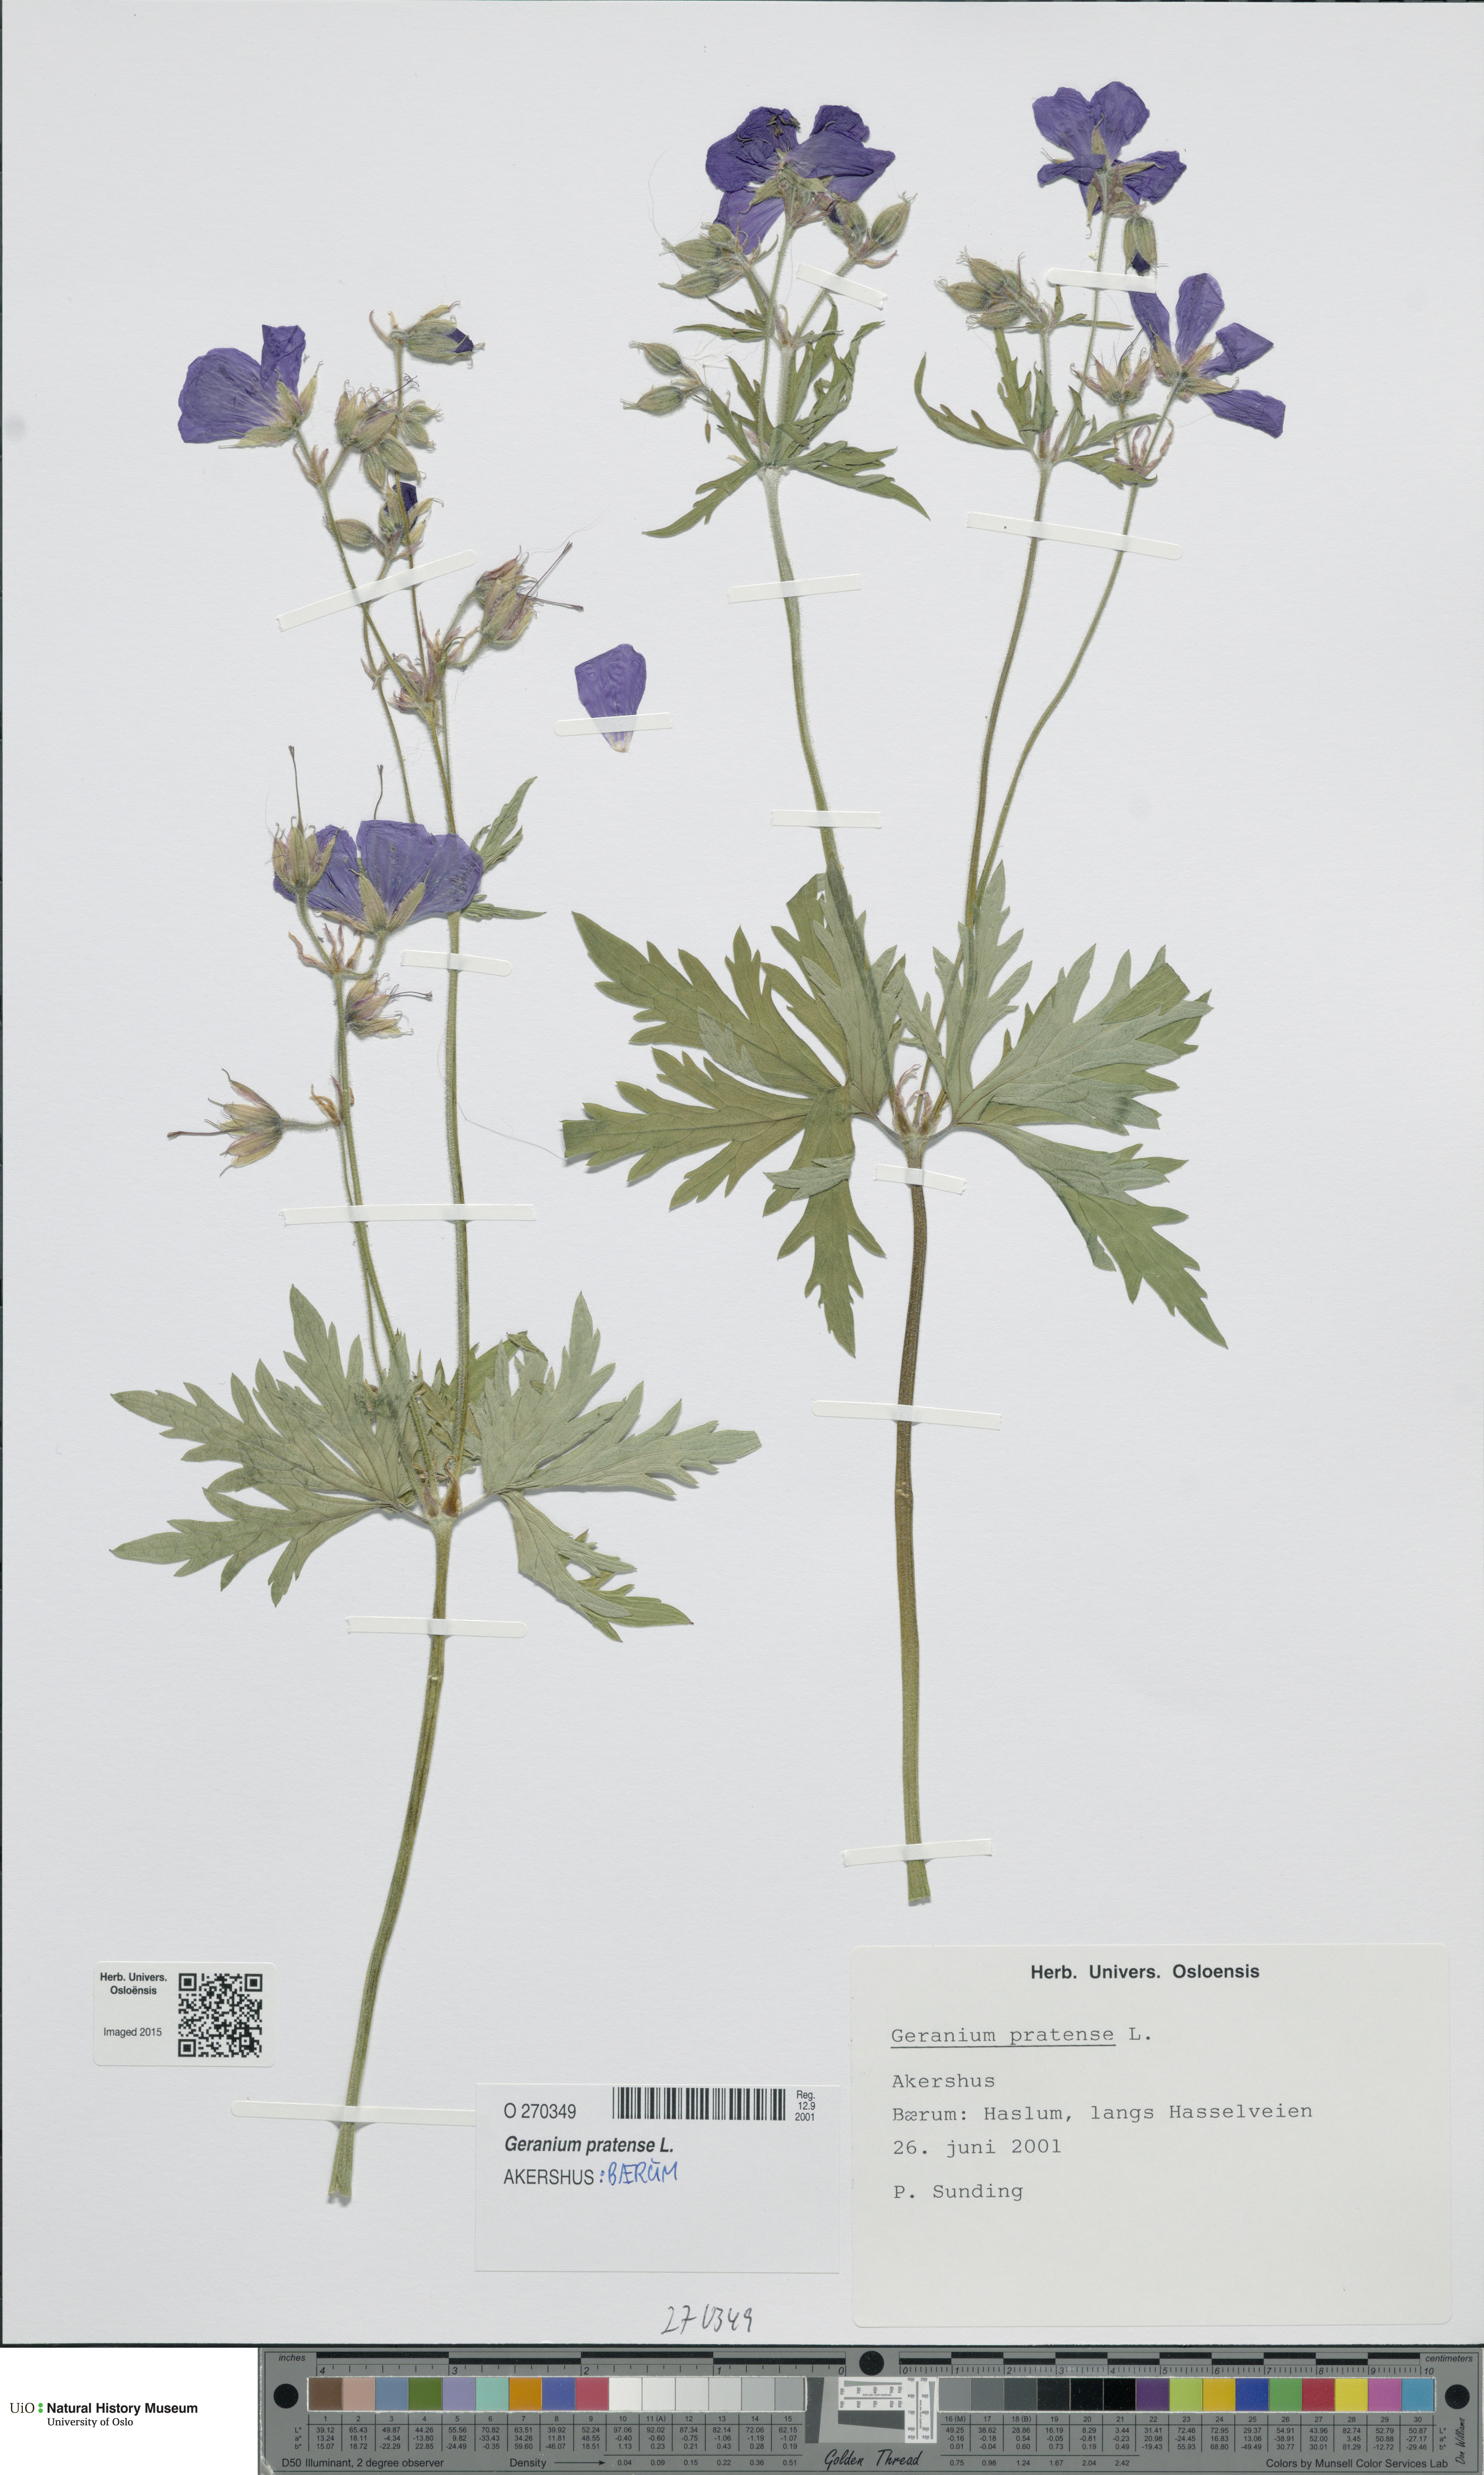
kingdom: Plantae
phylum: Tracheophyta
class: Magnoliopsida
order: Geraniales
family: Geraniaceae
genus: Geranium
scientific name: Geranium pratense
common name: Meadow crane's-bill
